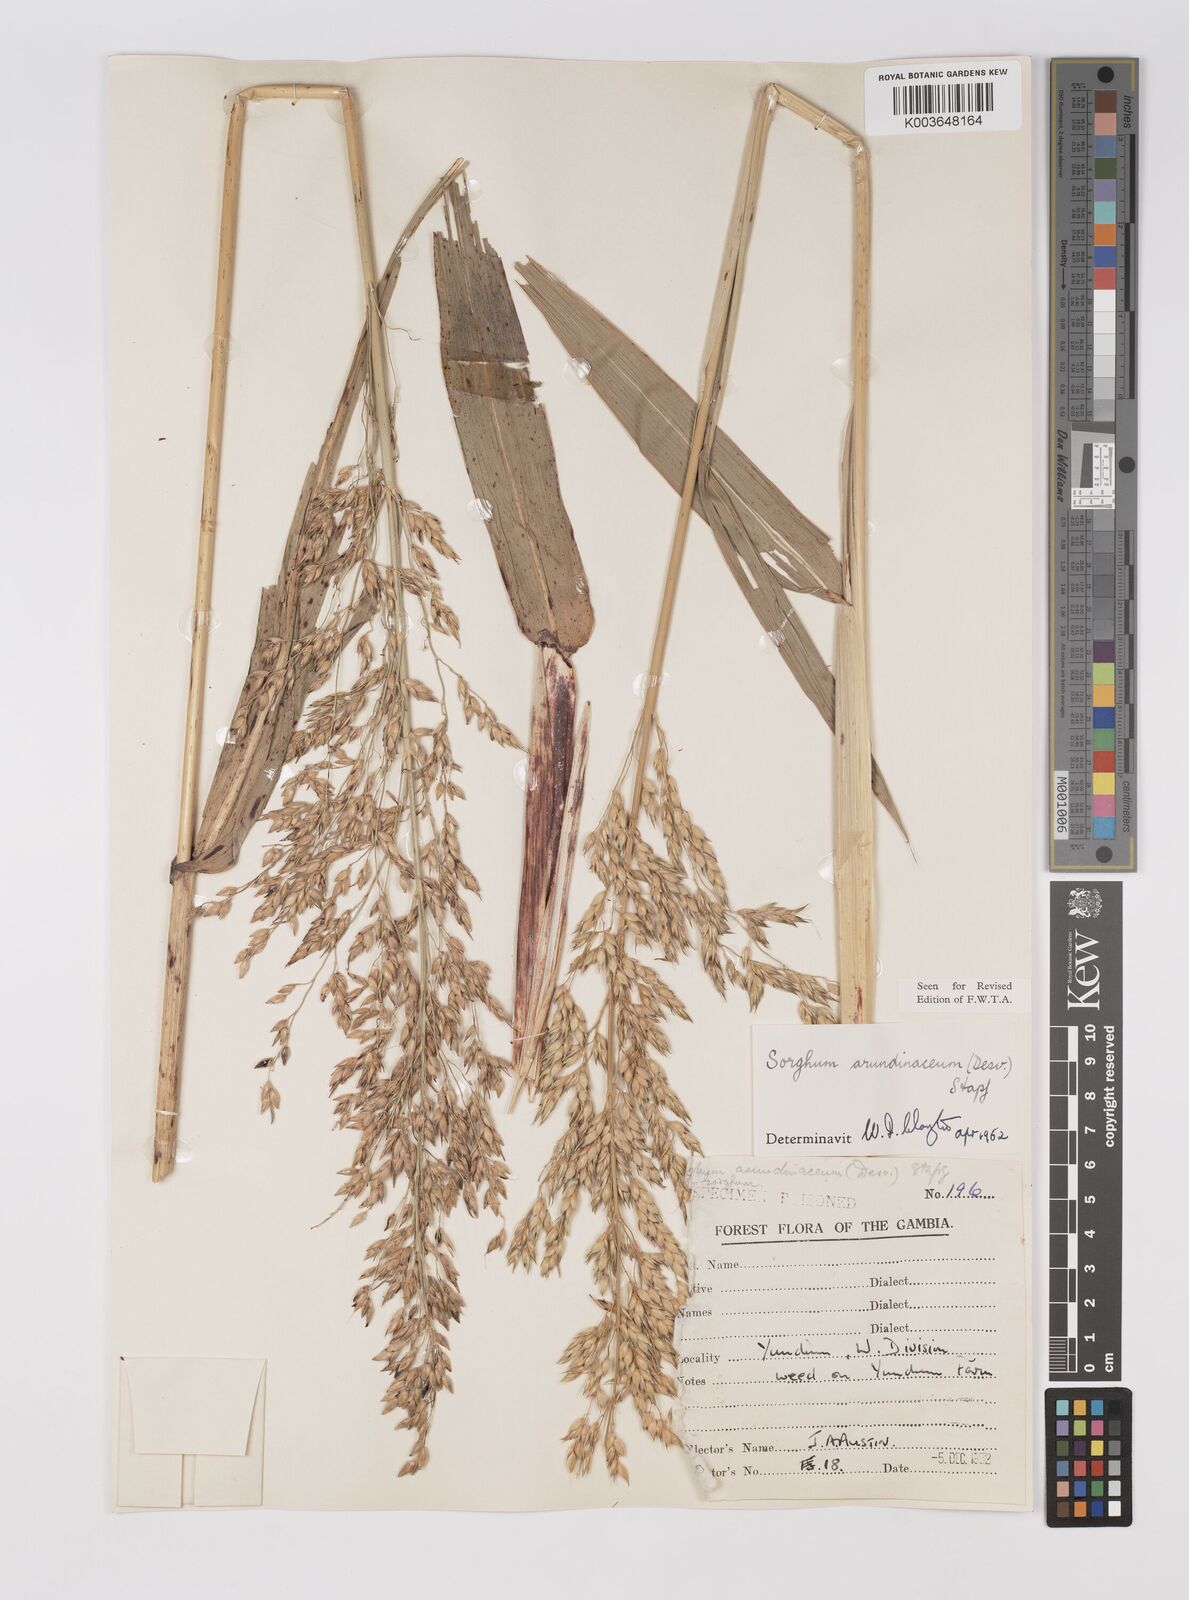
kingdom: Plantae
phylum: Tracheophyta
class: Liliopsida
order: Poales
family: Poaceae
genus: Sorghum
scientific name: Sorghum arundinaceum
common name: Sorghum
